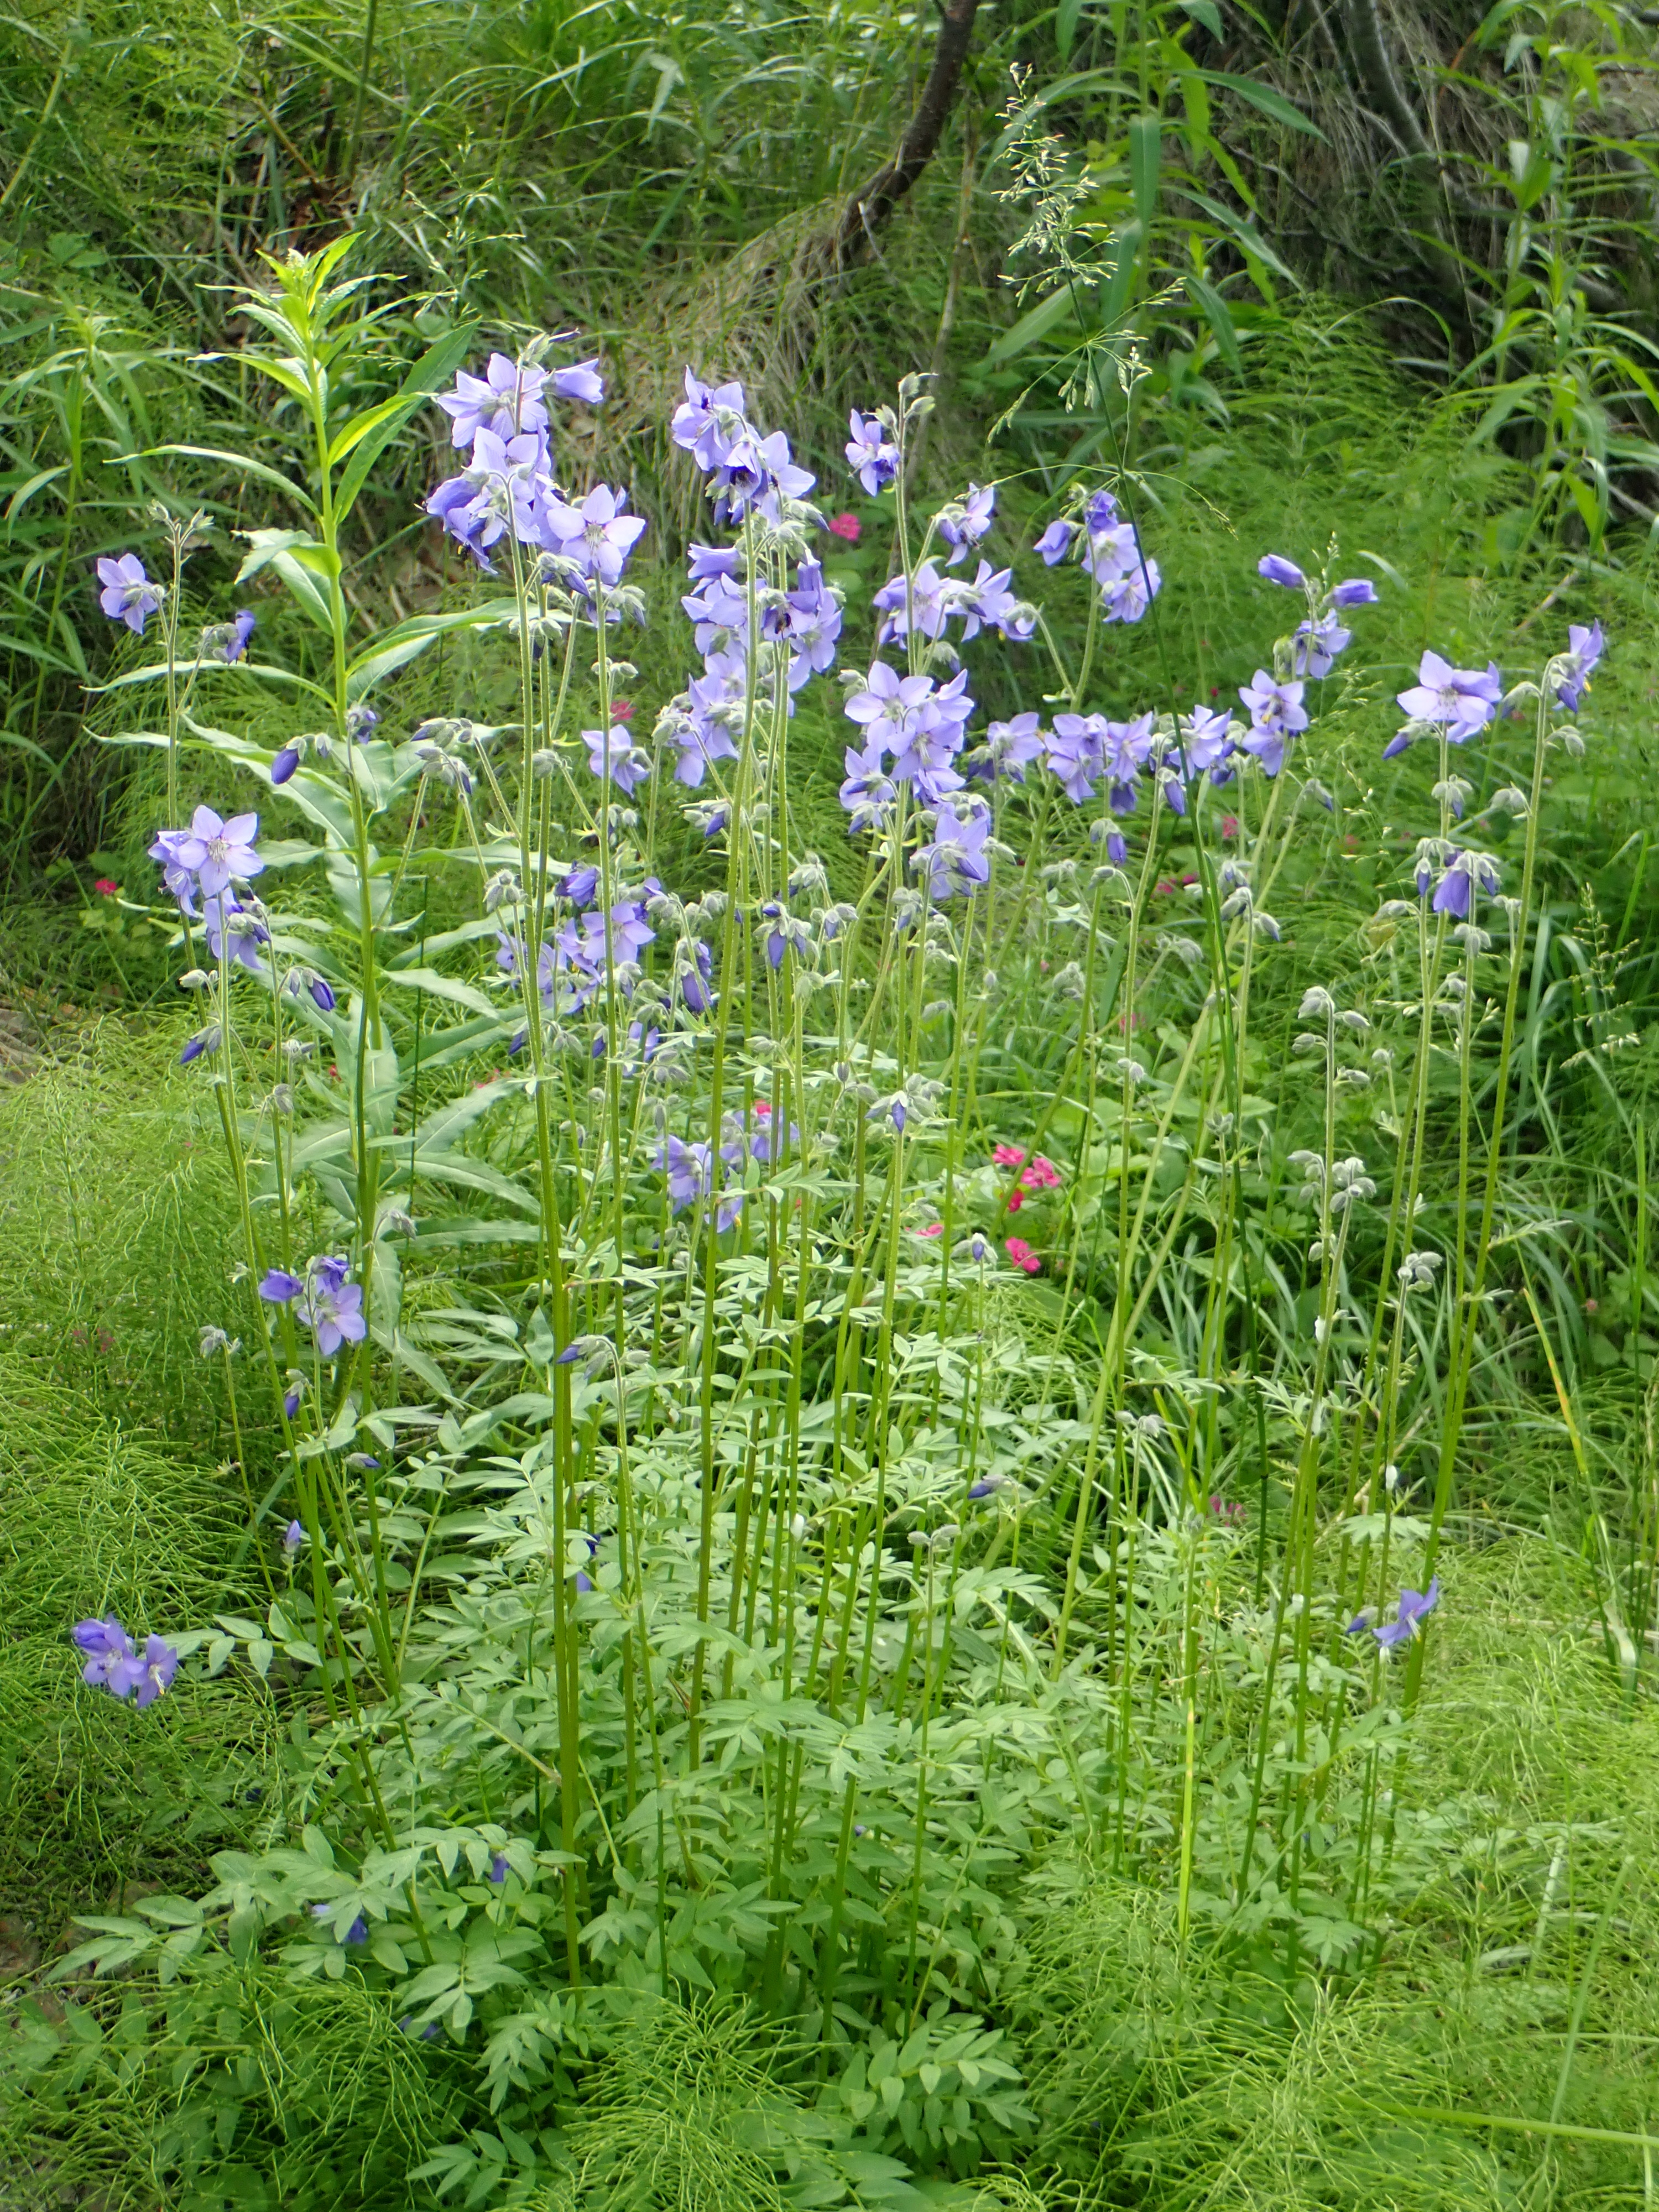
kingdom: Plantae
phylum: Tracheophyta
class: Magnoliopsida
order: Ericales
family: Polemoniaceae
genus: Polemonium
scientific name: Polemonium villosum
